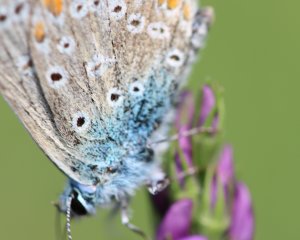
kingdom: Animalia
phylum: Arthropoda
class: Insecta
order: Lepidoptera
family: Lycaenidae
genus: Polyommatus
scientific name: Polyommatus icarus
